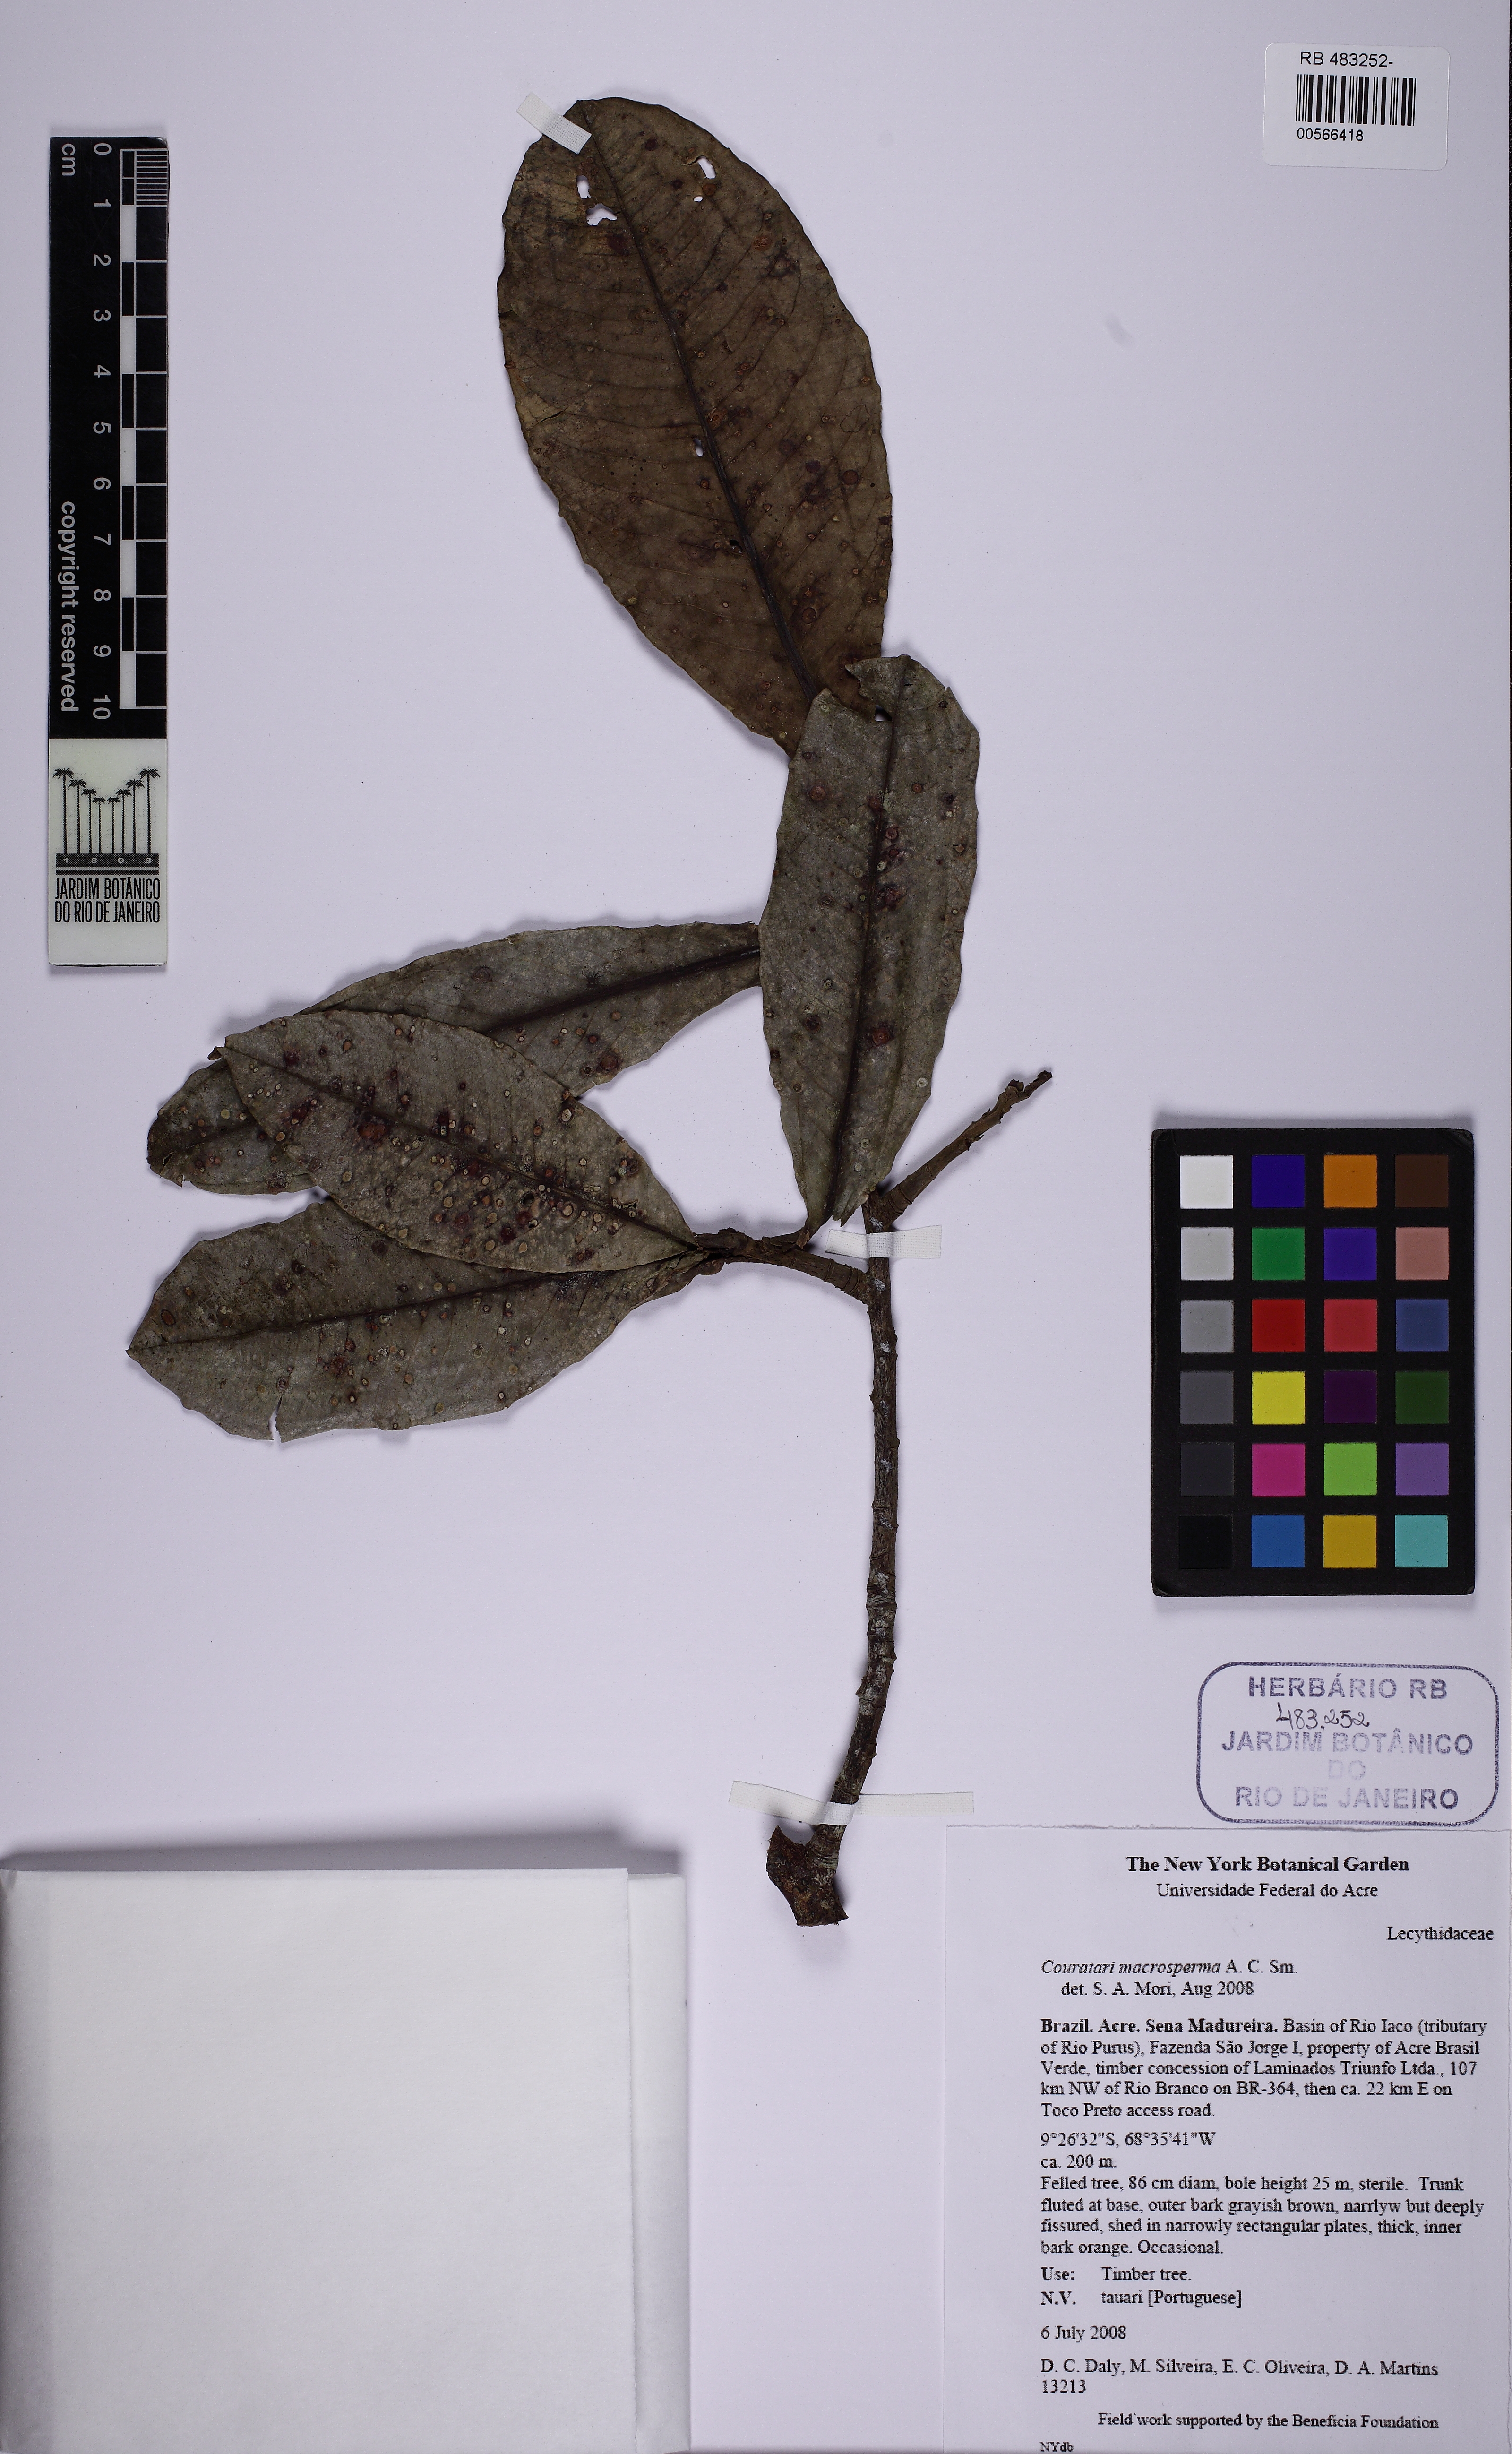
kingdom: Plantae
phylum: Tracheophyta
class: Magnoliopsida
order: Ericales
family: Lecythidaceae
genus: Couratari
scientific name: Couratari macrosperma
